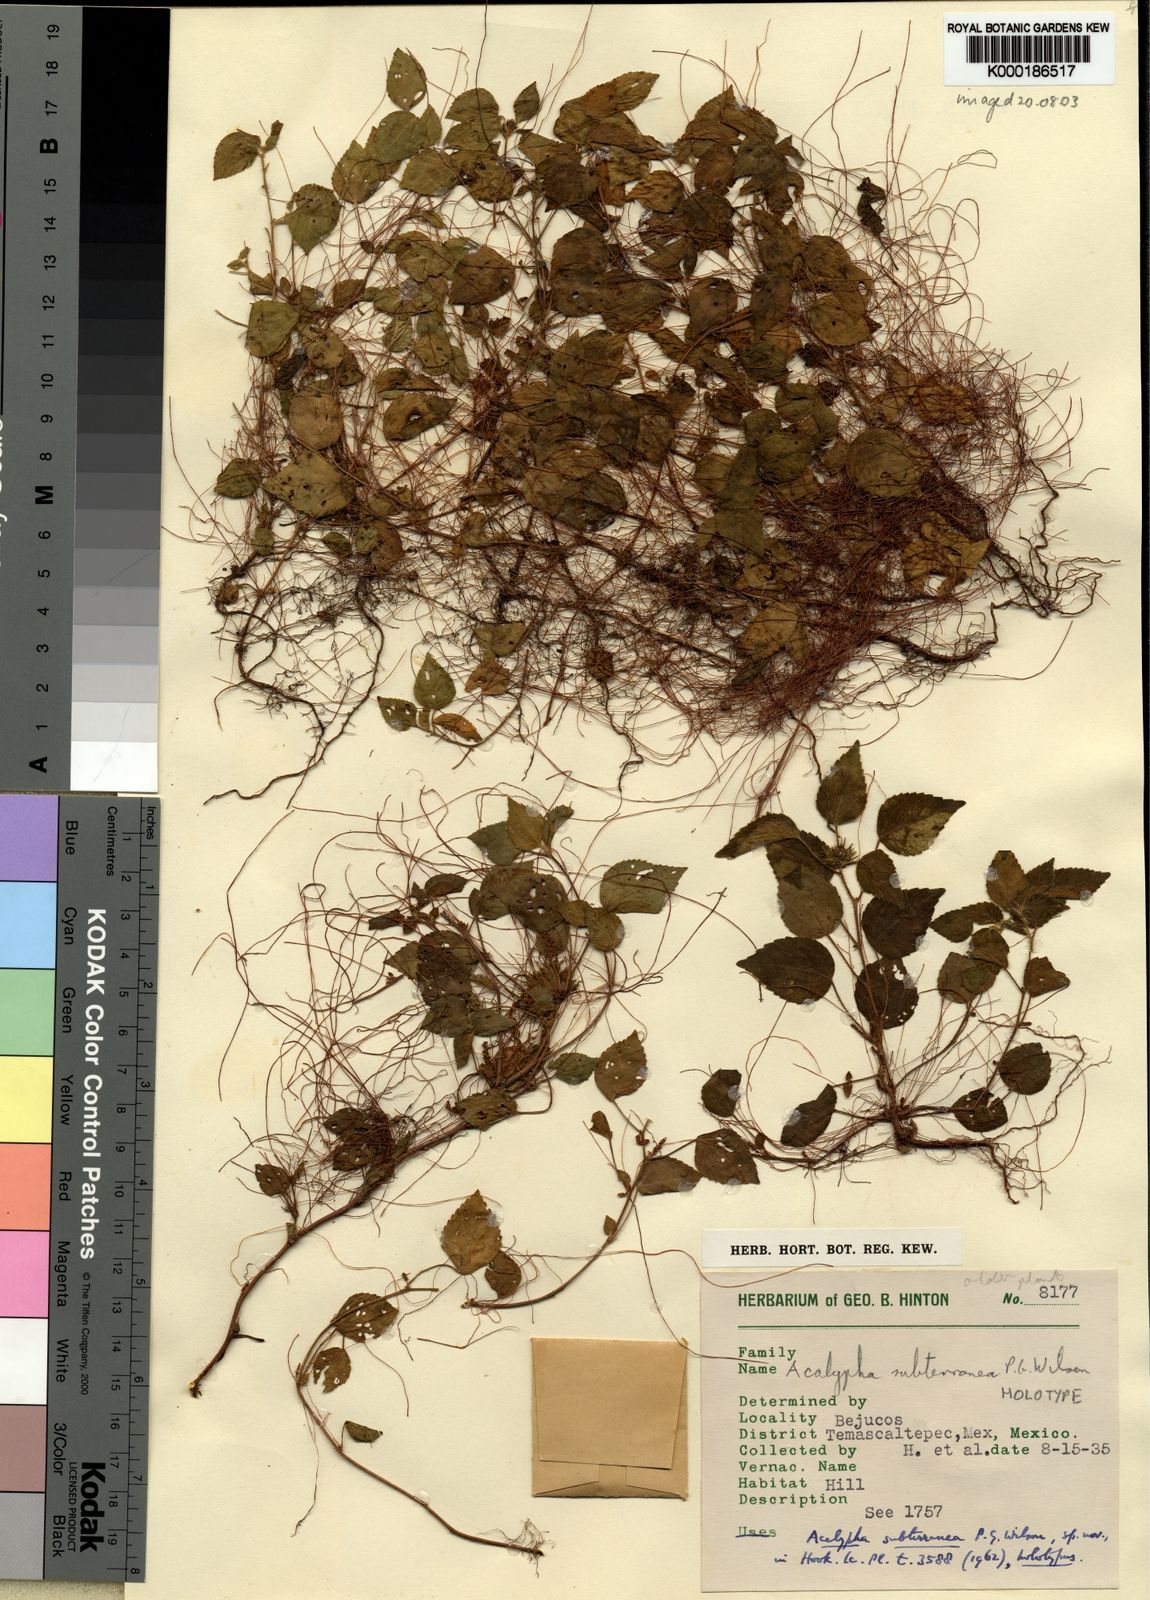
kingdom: Plantae
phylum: Tracheophyta
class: Magnoliopsida
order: Malpighiales
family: Euphorbiaceae
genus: Acalypha
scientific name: Acalypha subterranea
